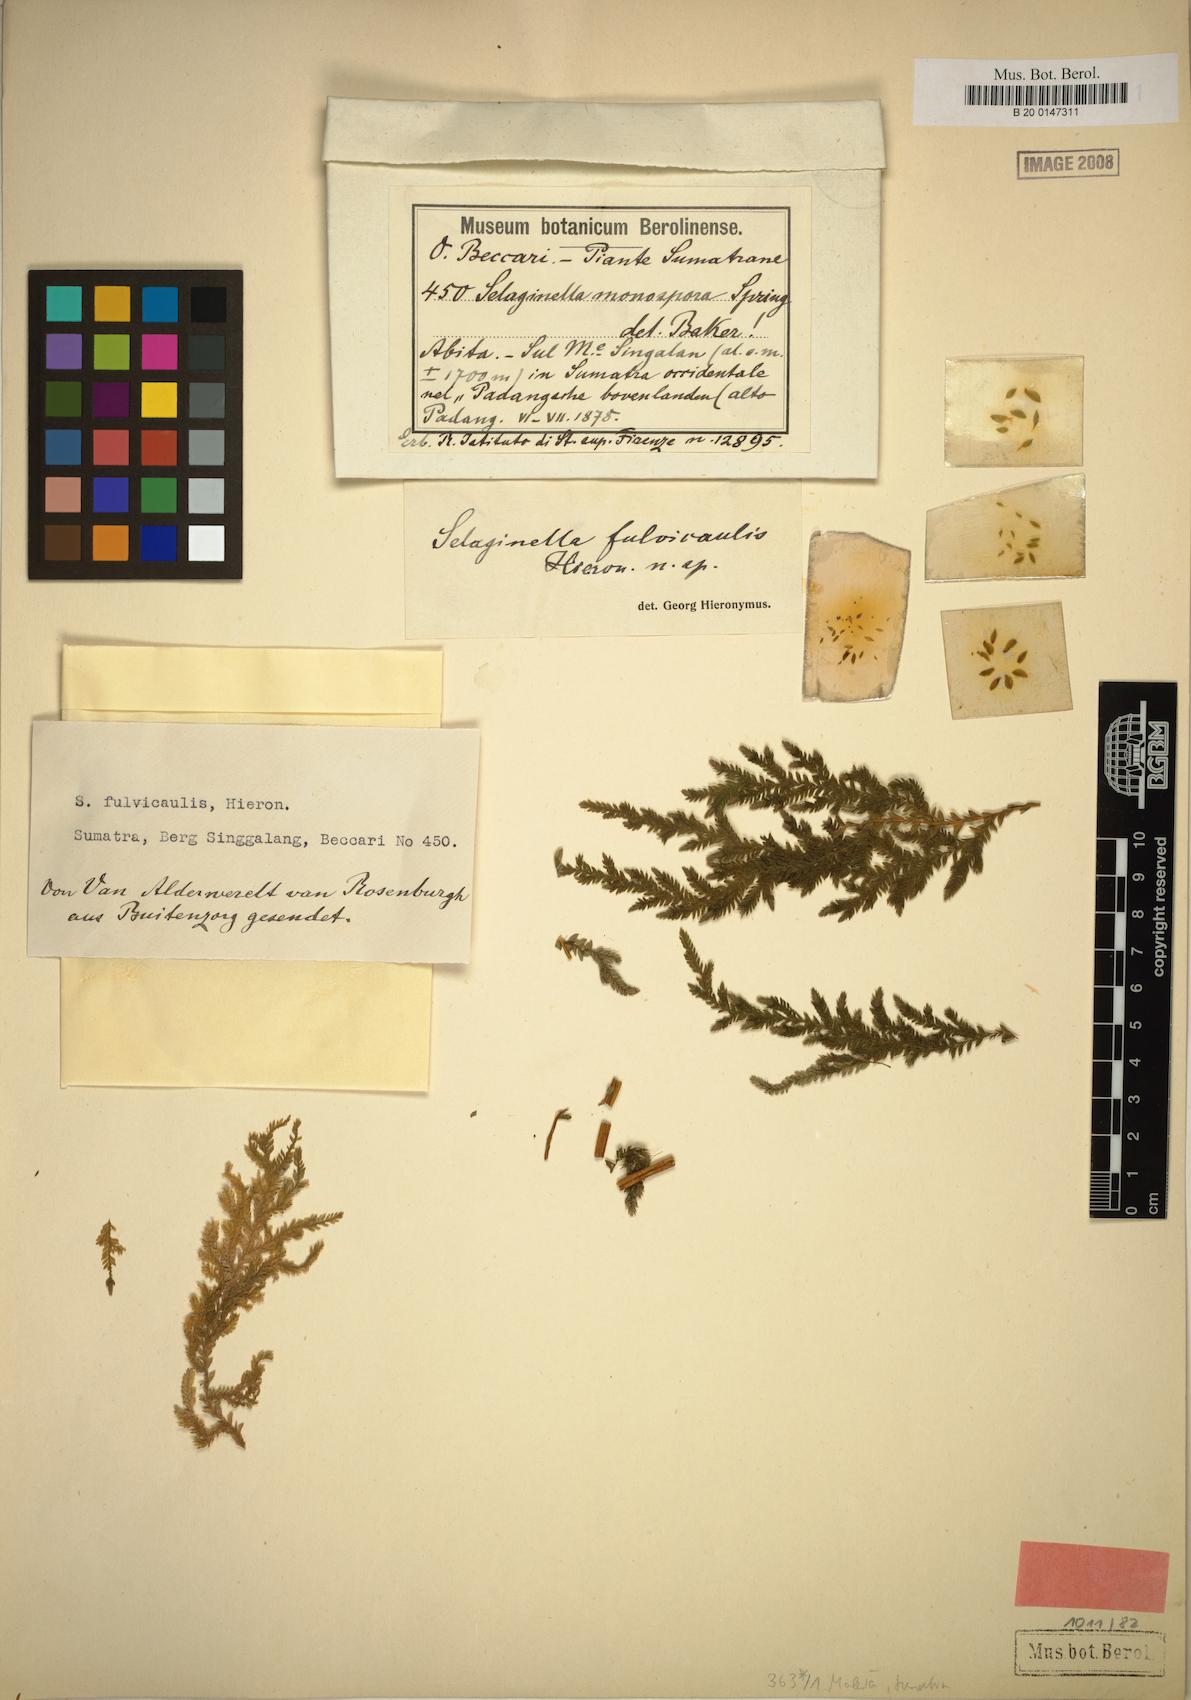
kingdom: Plantae
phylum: Tracheophyta
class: Lycopodiopsida
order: Selaginellales
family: Selaginellaceae
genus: Selaginella
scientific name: Selaginella fulvicaulis
